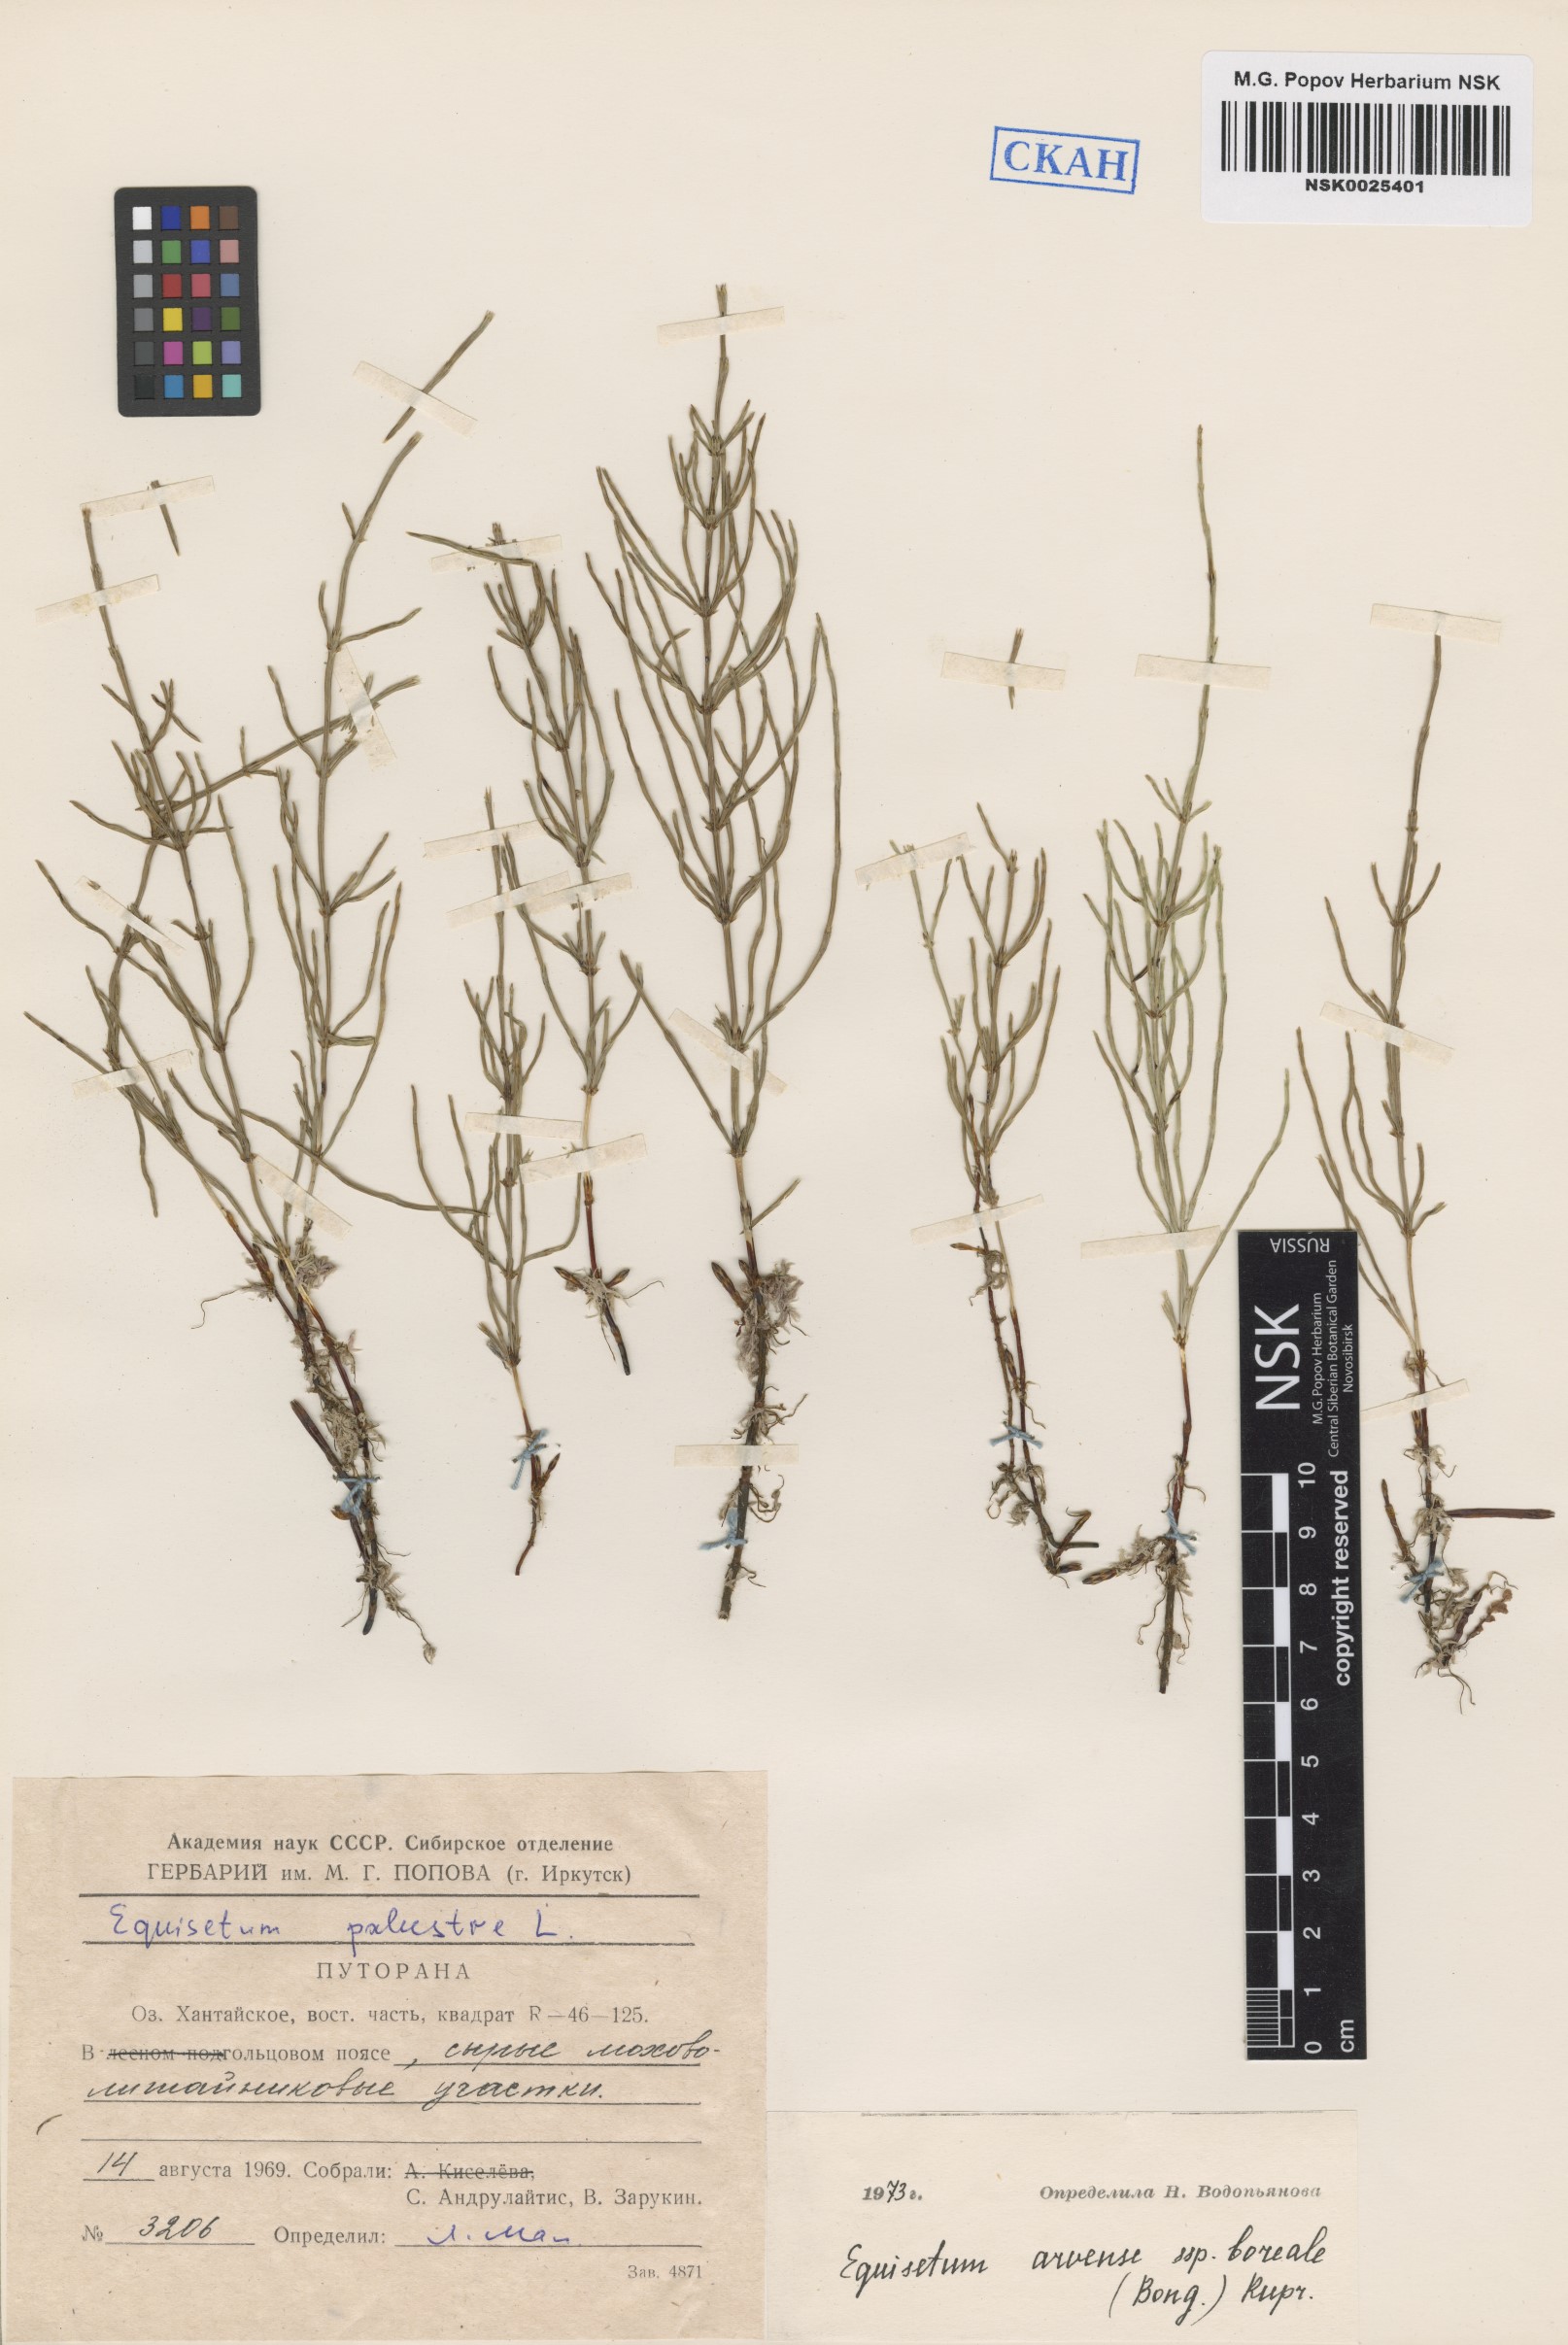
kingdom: Plantae
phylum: Tracheophyta
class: Polypodiopsida
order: Equisetales
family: Equisetaceae
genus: Equisetum
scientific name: Equisetum arvense
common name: Field horsetail
